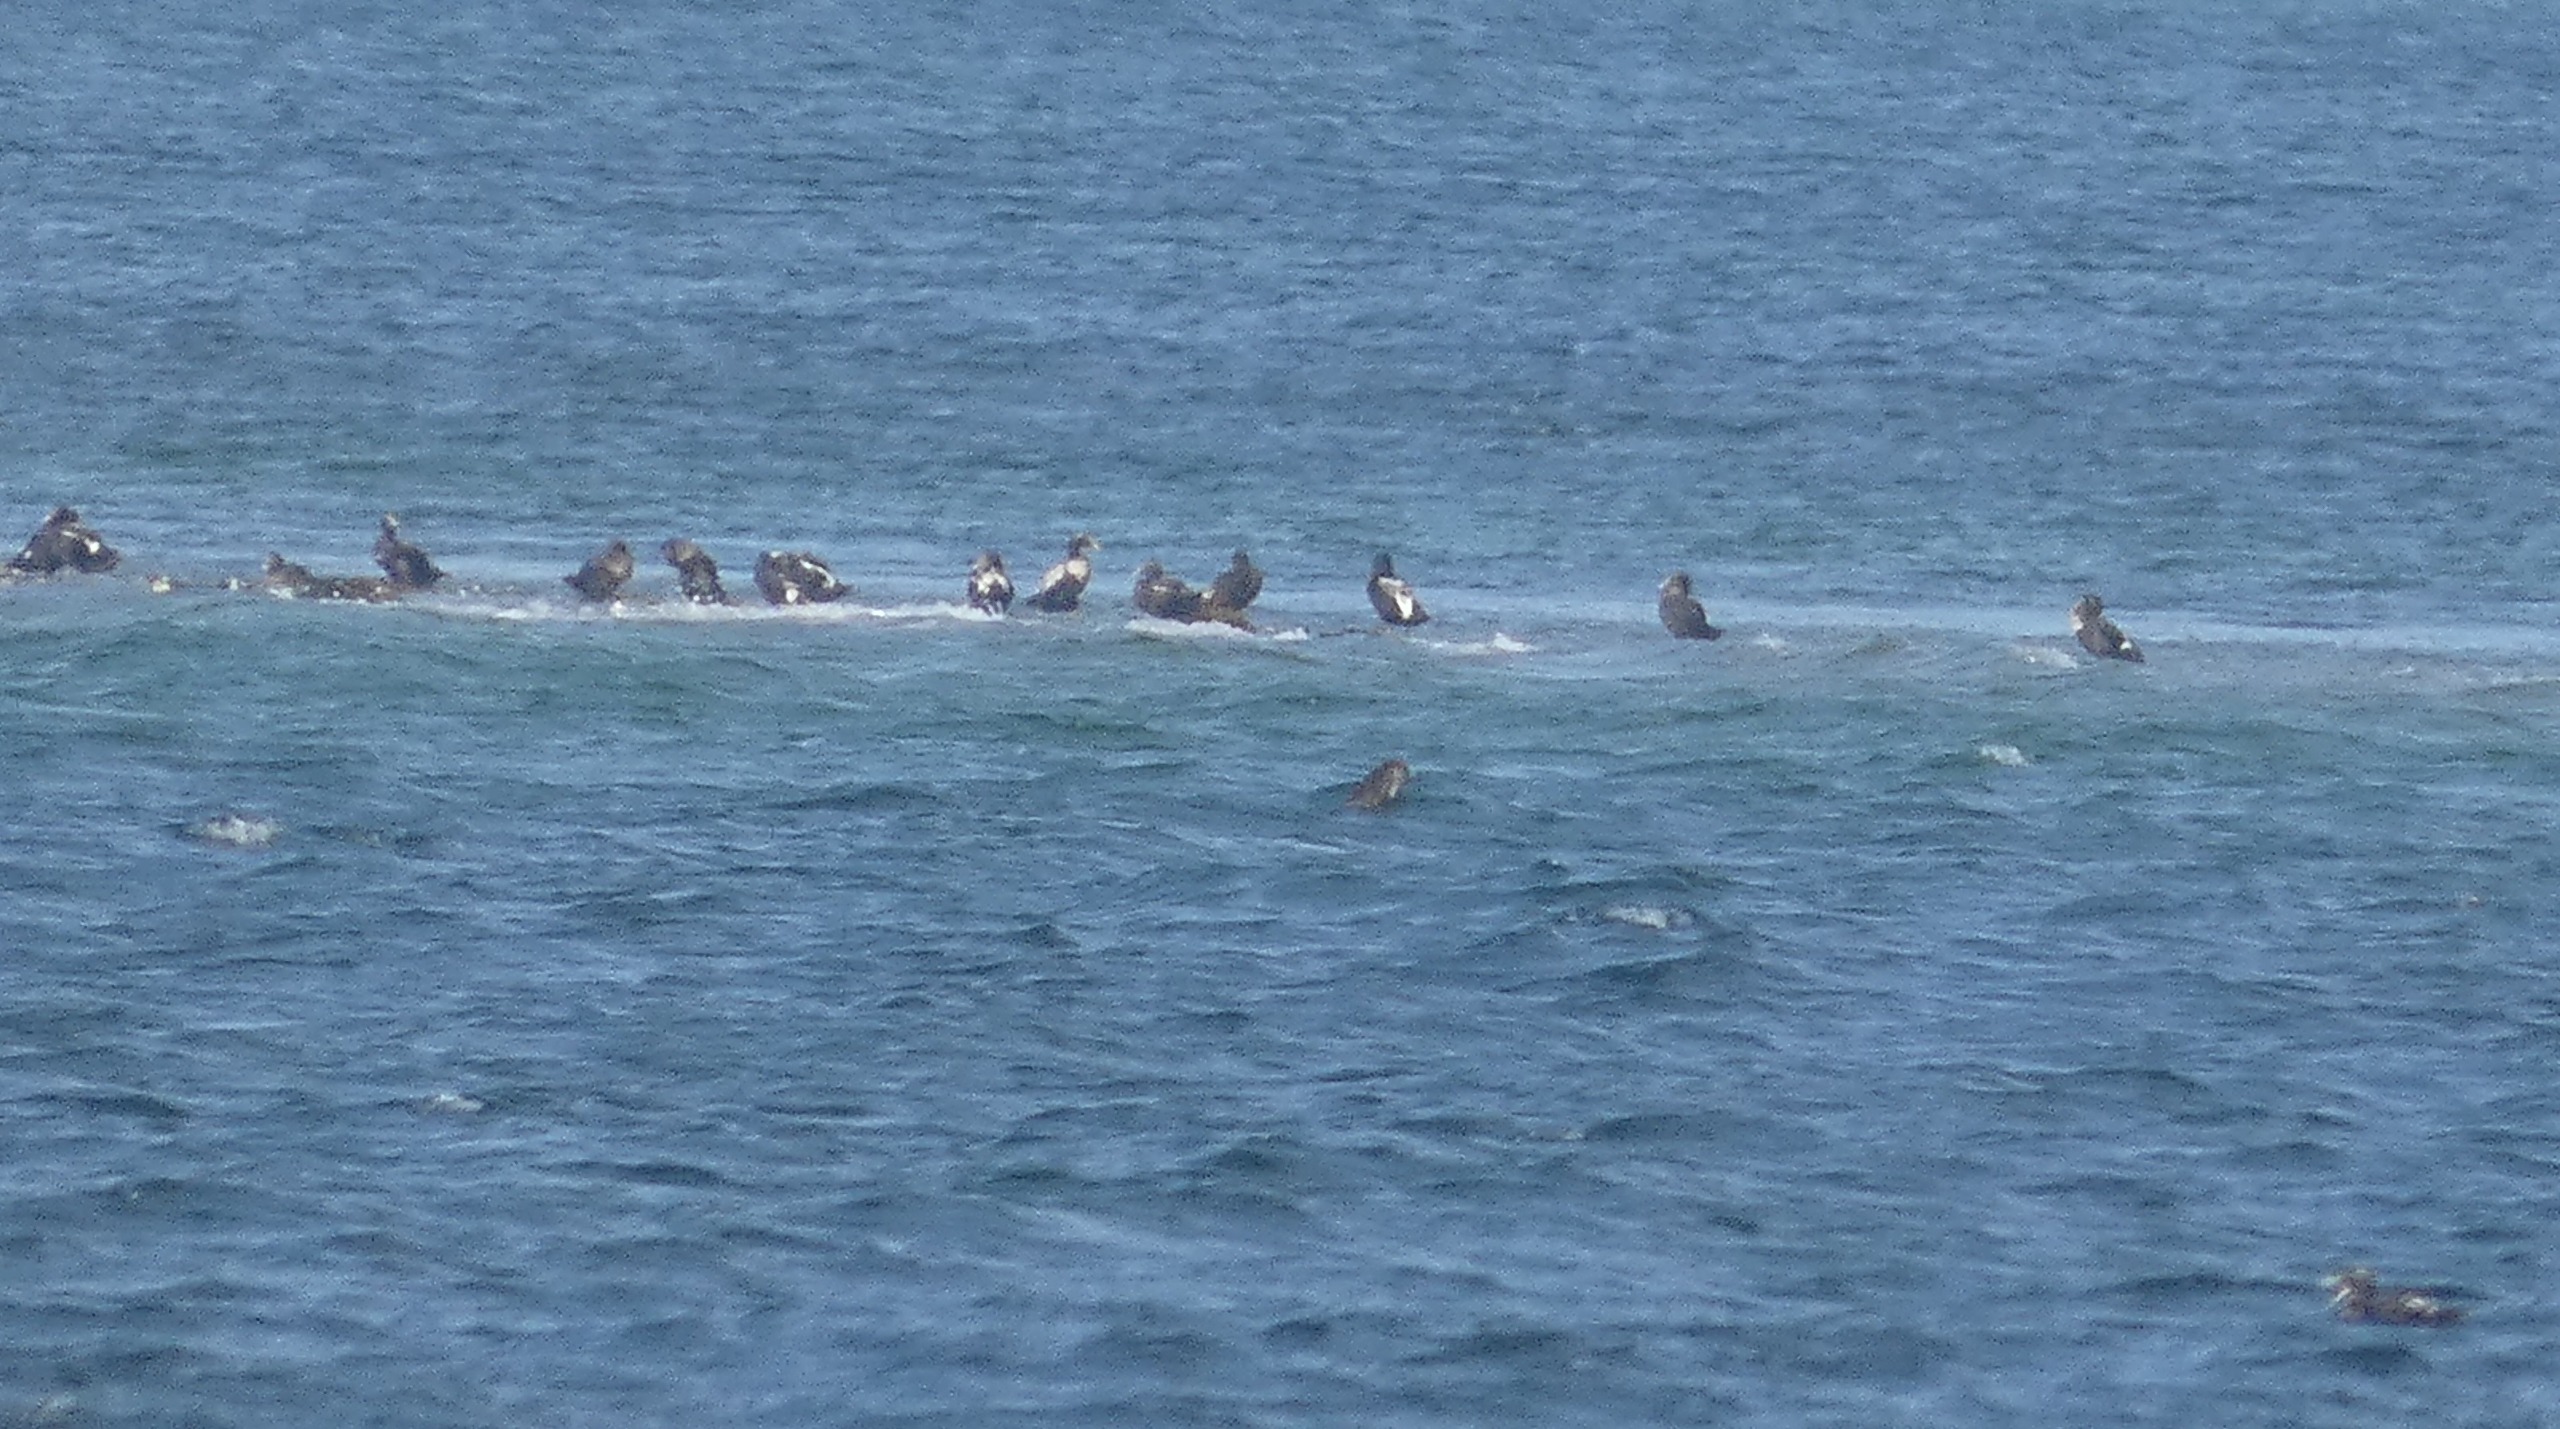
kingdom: Animalia
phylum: Chordata
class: Aves
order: Anseriformes
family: Anatidae
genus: Somateria
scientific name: Somateria mollissima
